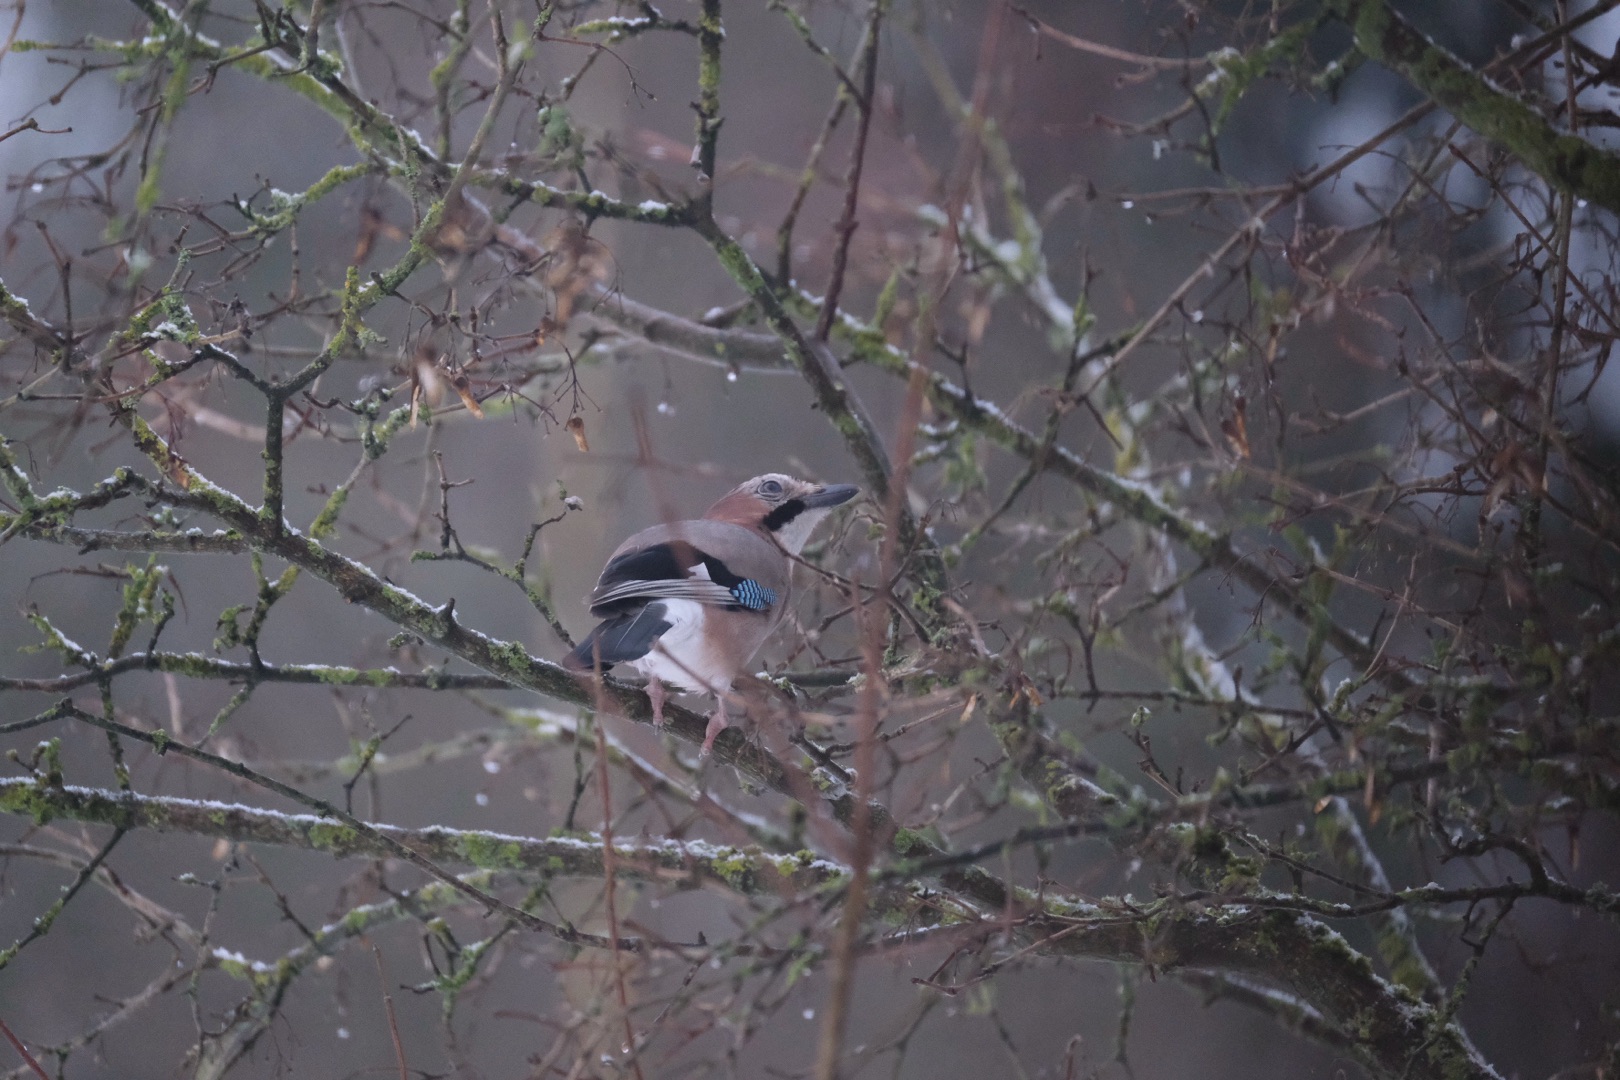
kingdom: Animalia
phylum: Chordata
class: Aves
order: Passeriformes
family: Corvidae
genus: Garrulus
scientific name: Garrulus glandarius
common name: Skovskade
